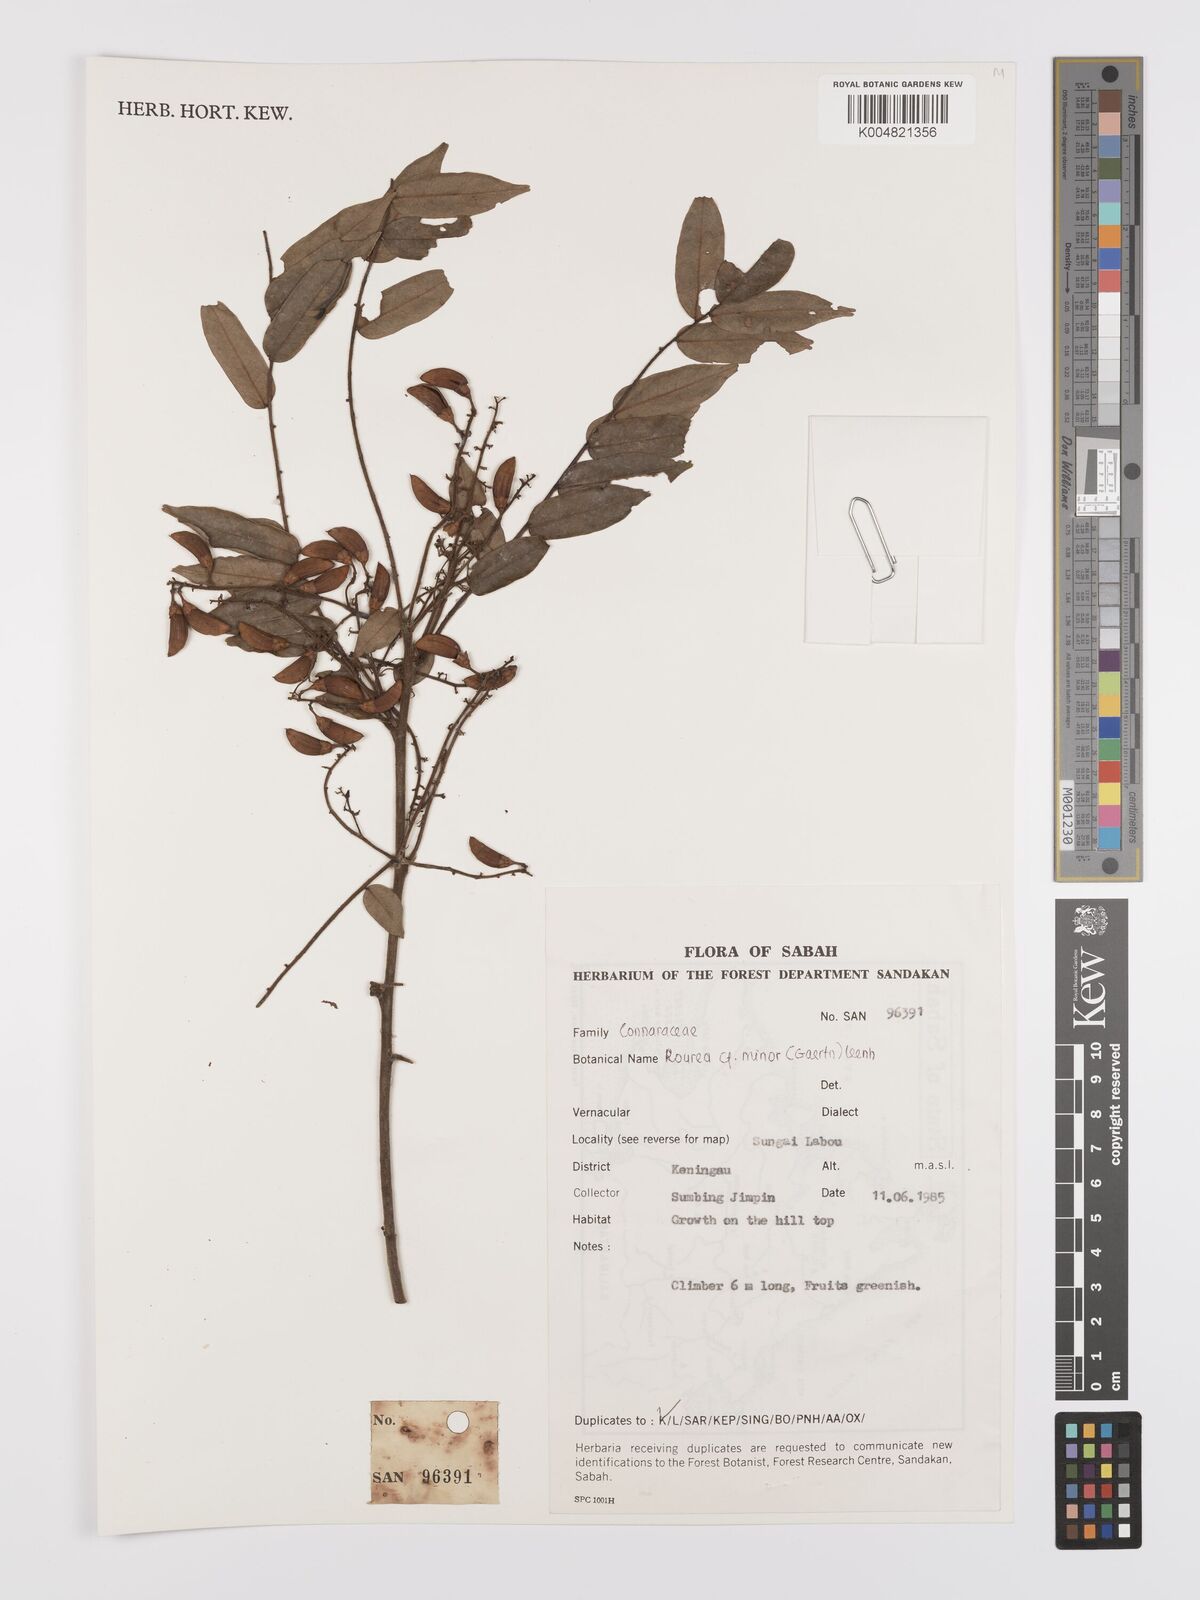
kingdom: Plantae
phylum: Tracheophyta
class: Magnoliopsida
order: Oxalidales
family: Connaraceae
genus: Rourea
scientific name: Rourea minor
